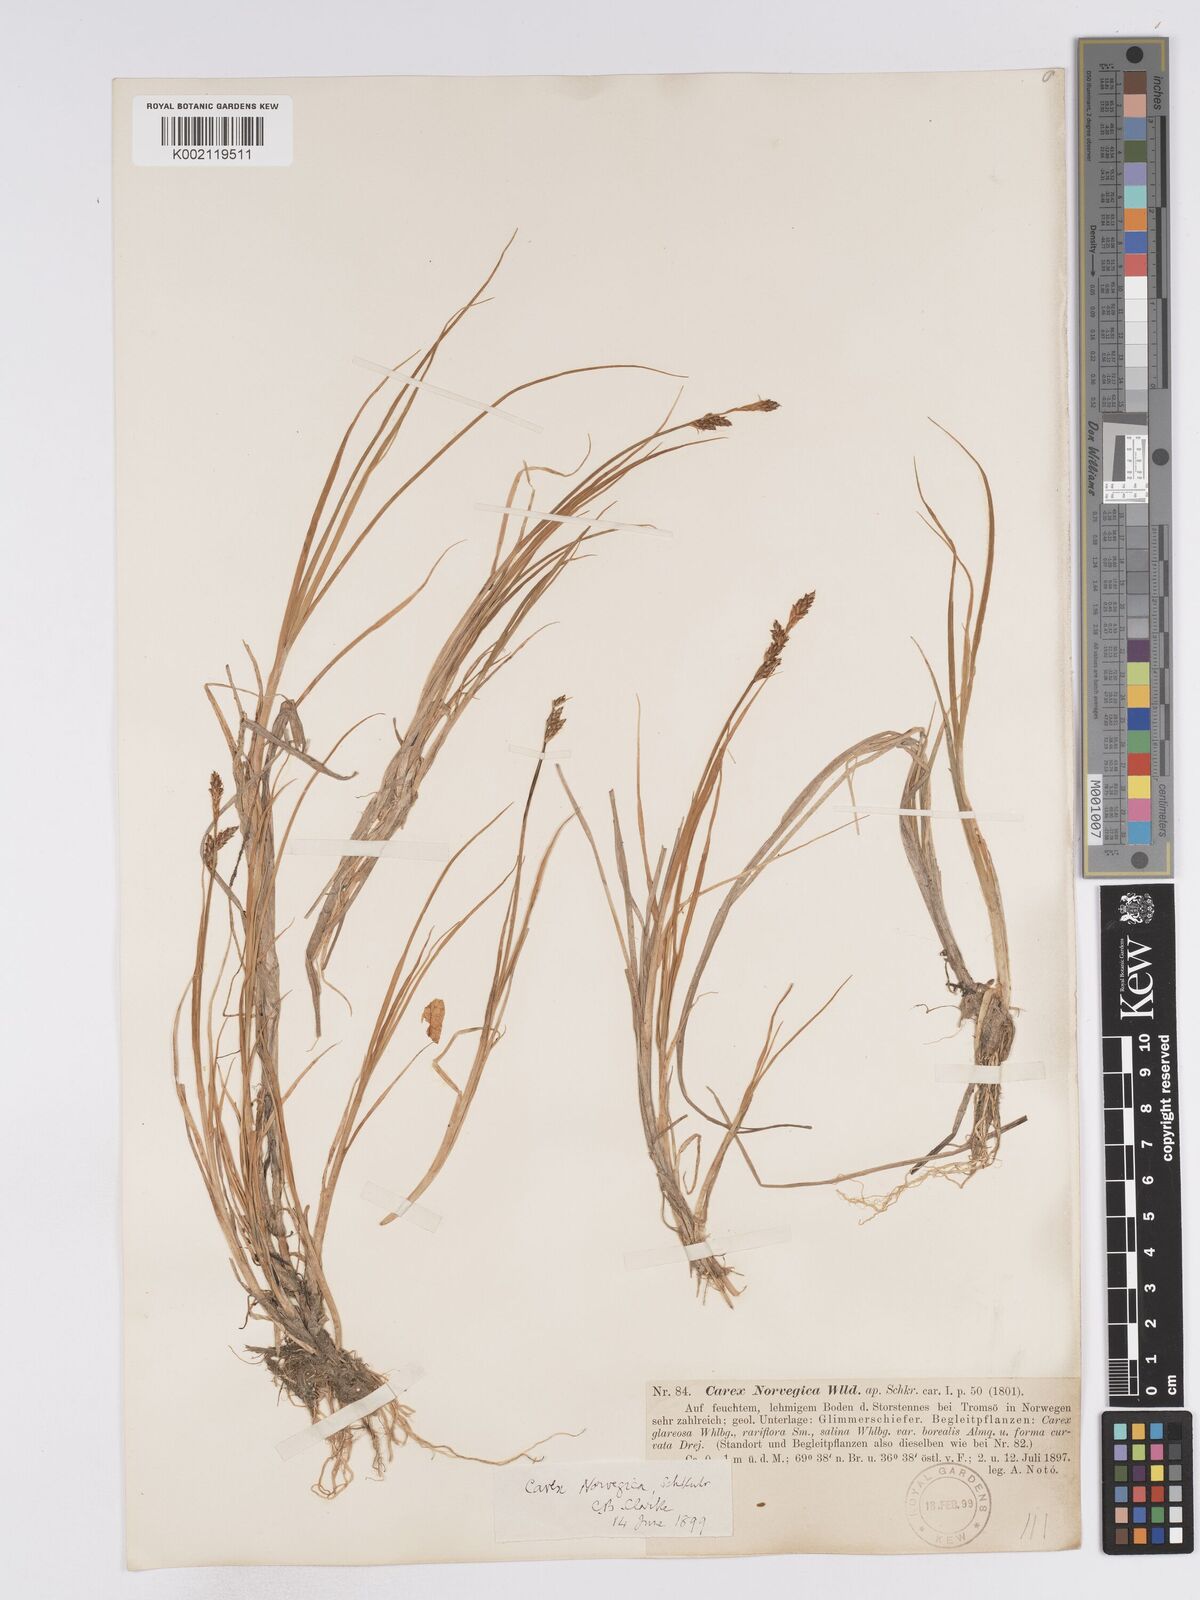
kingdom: Plantae
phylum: Tracheophyta
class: Liliopsida
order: Poales
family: Cyperaceae
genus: Carex
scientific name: Carex mackenziei
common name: Mackenzie's sedge
